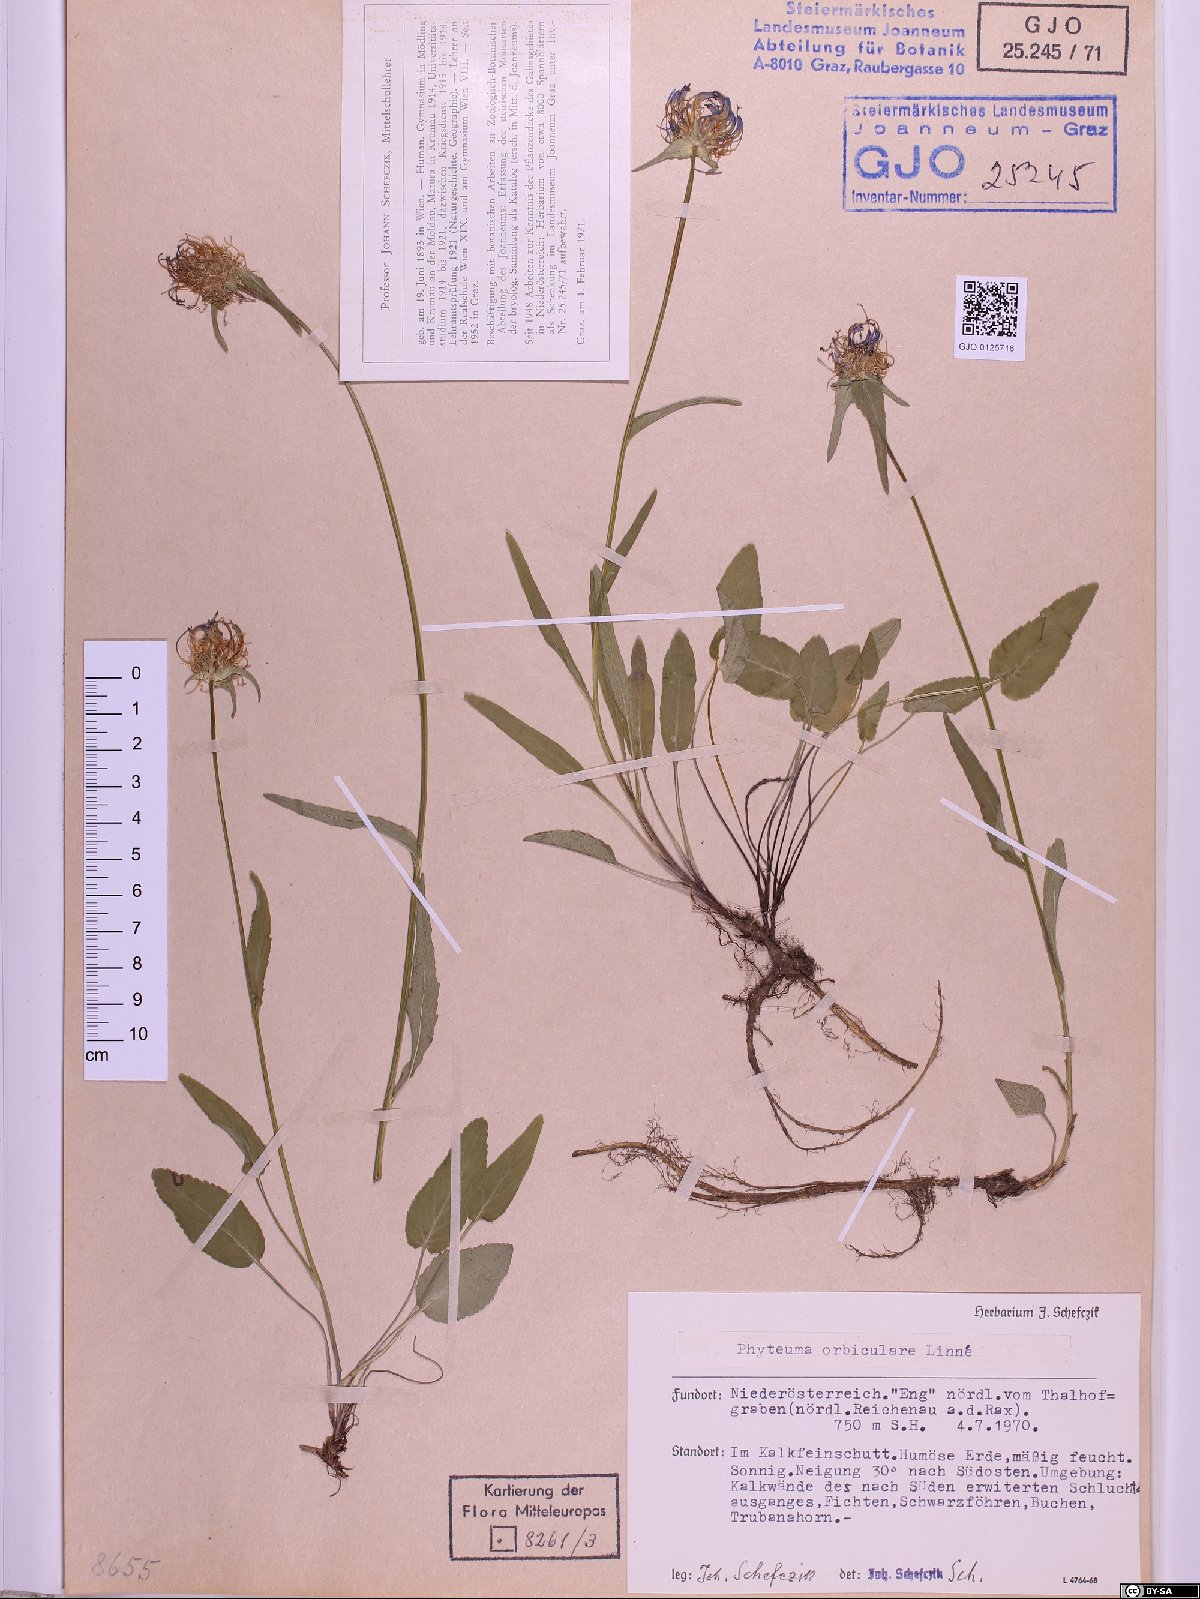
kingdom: Plantae
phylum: Tracheophyta
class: Magnoliopsida
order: Asterales
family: Campanulaceae
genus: Phyteuma
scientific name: Phyteuma orbiculare
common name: Round-headed rampion
